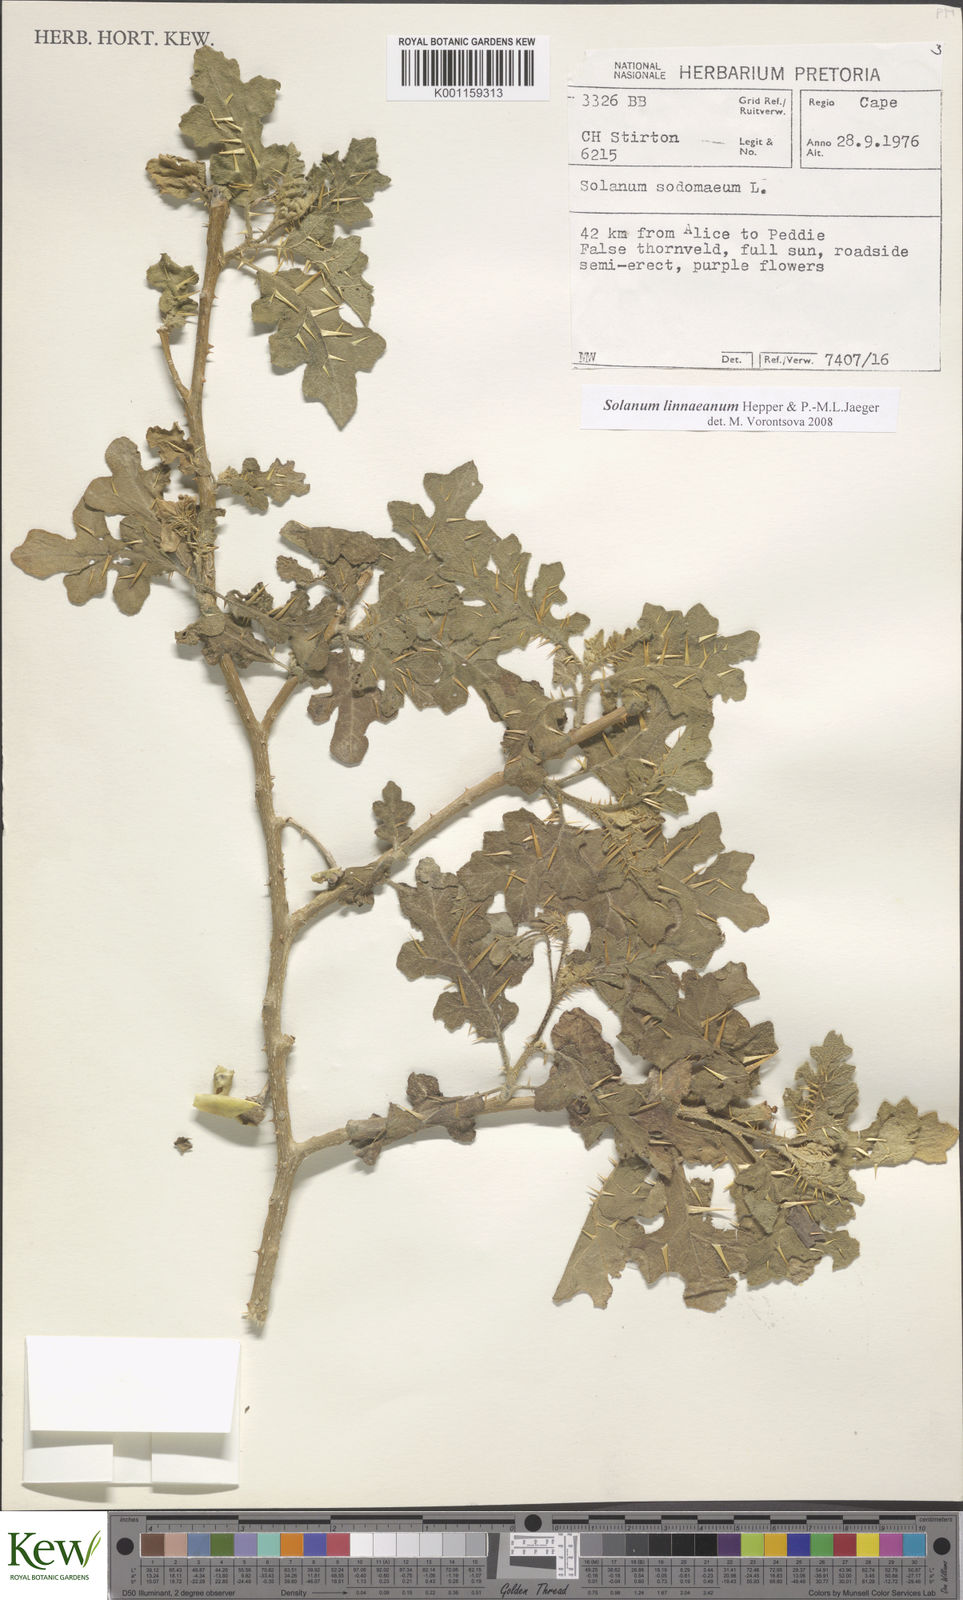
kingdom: Plantae
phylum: Tracheophyta
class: Magnoliopsida
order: Solanales
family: Solanaceae
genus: Solanum
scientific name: Solanum linnaeanum
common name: Nightshade
